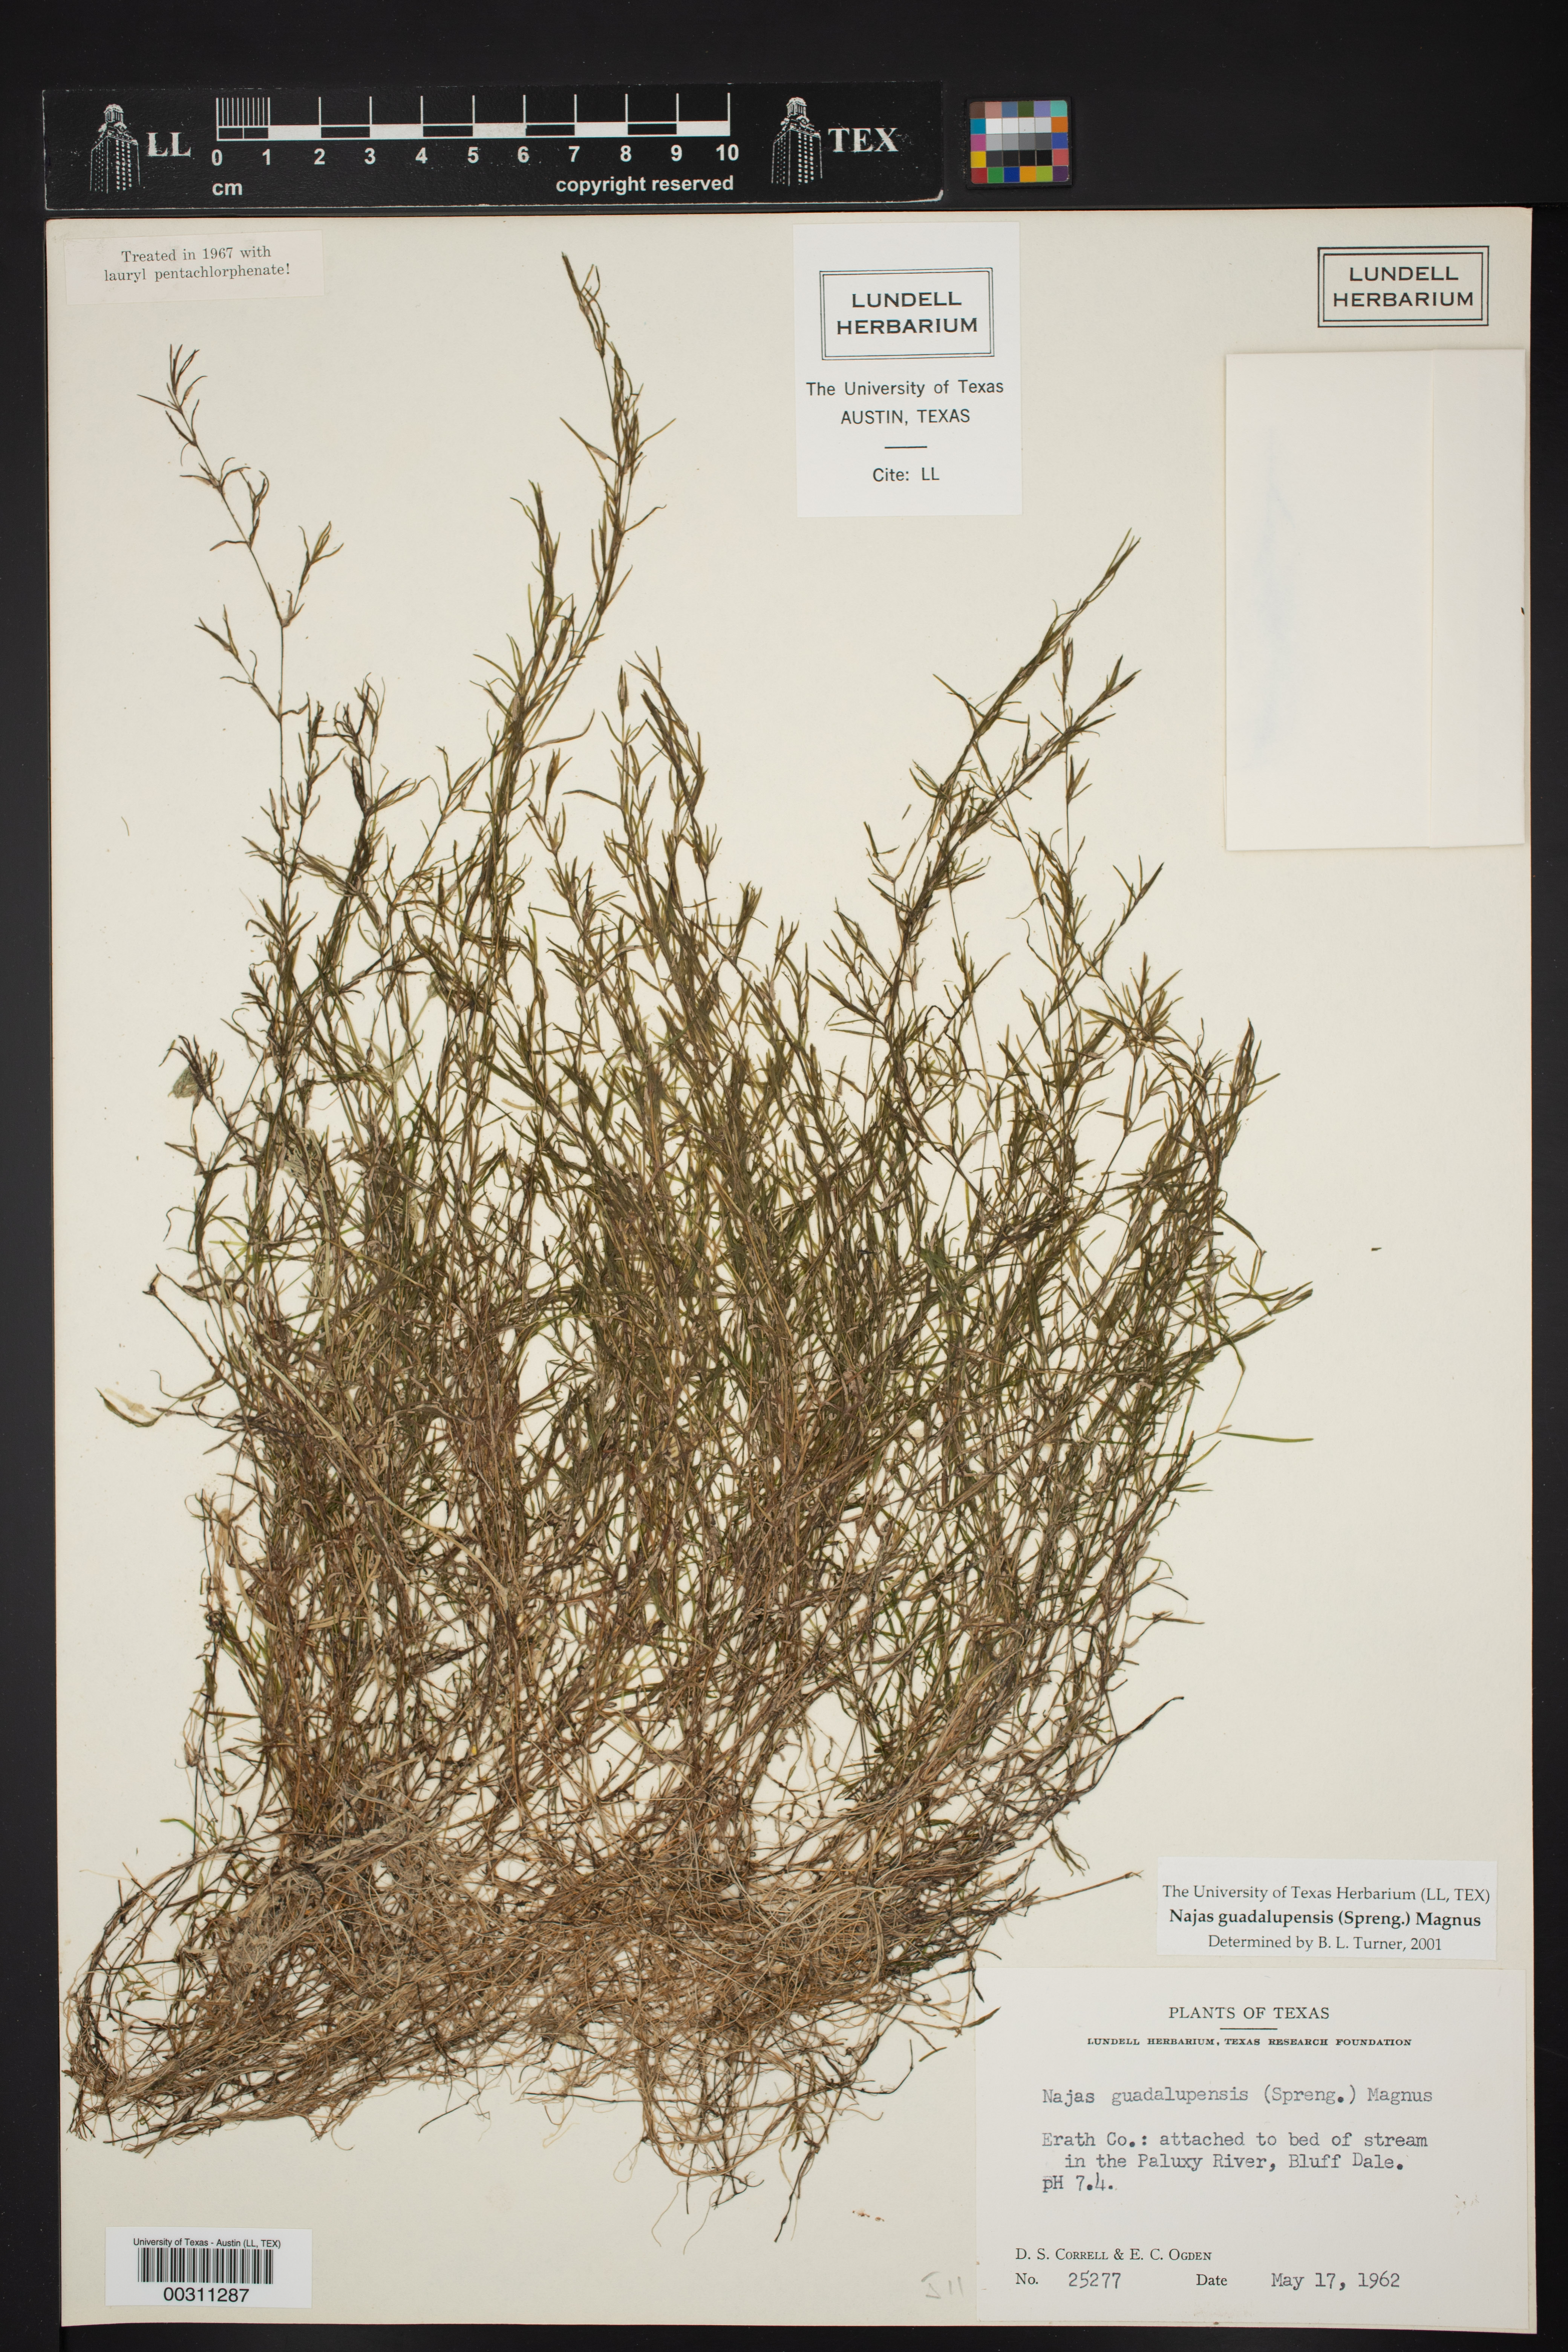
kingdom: Plantae
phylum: Tracheophyta
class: Liliopsida
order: Alismatales
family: Hydrocharitaceae
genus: Najas
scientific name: Najas guadalupensis
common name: Southern naiad
